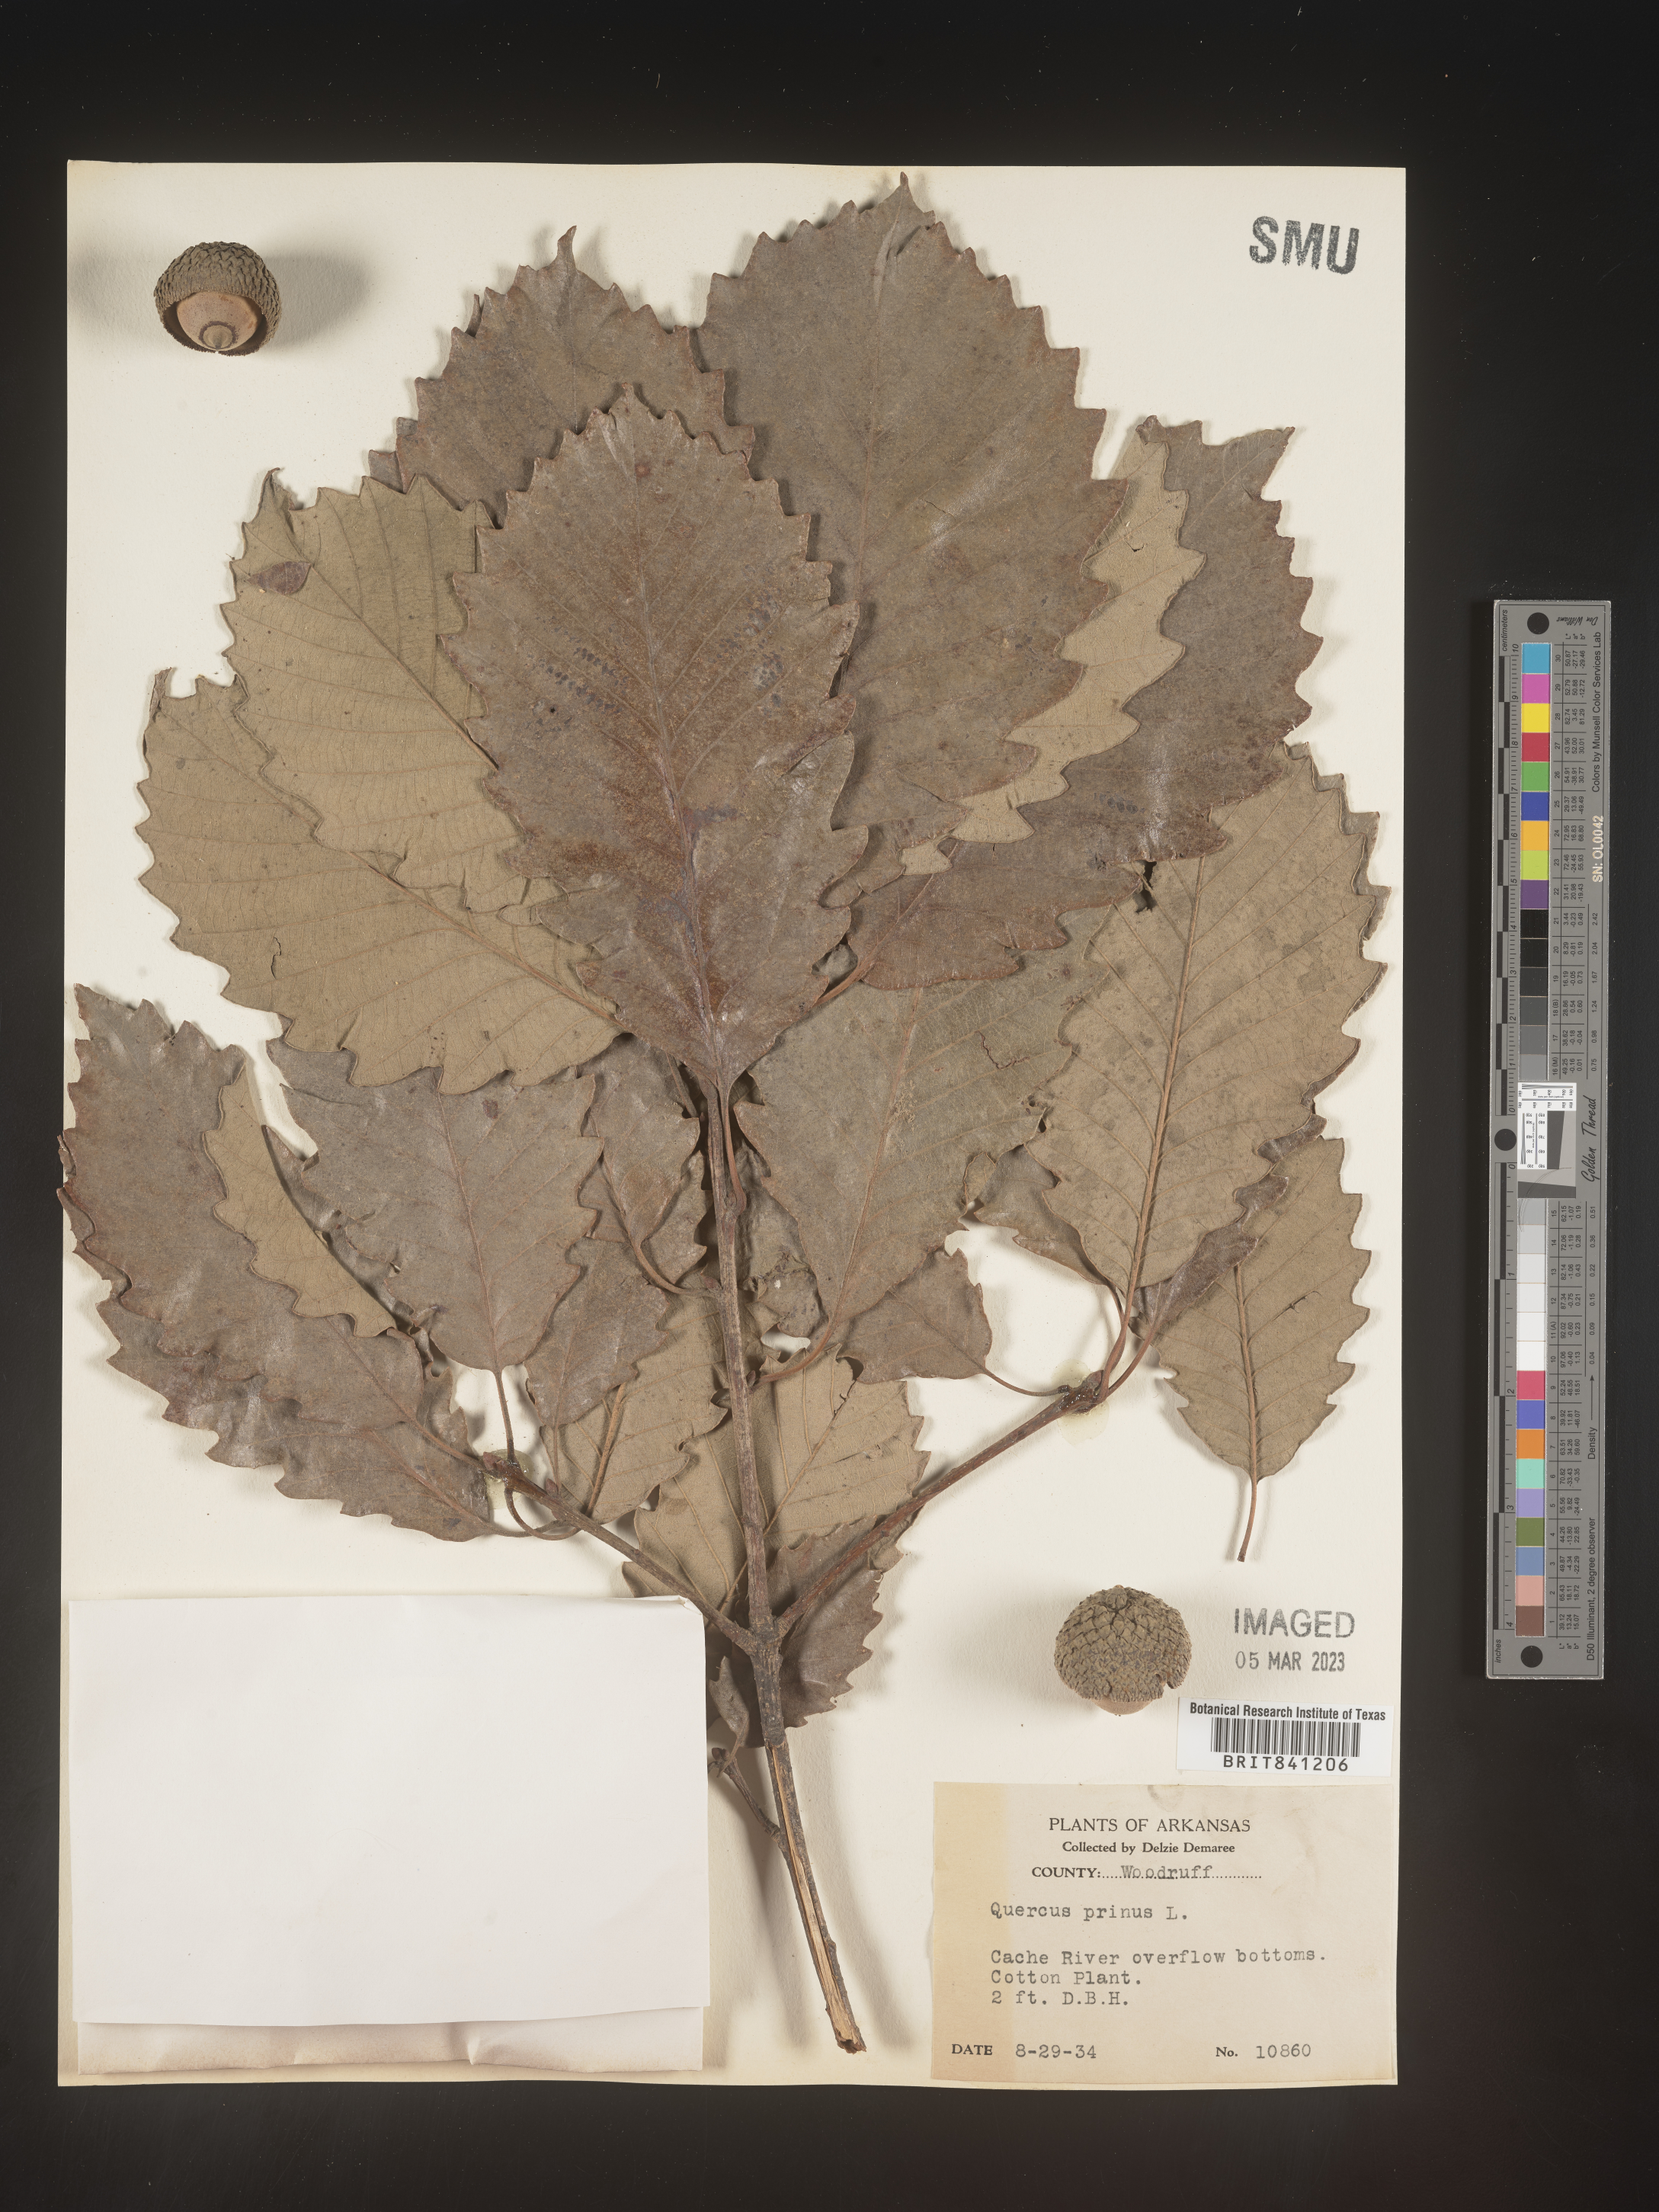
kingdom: Plantae
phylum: Tracheophyta
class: Magnoliopsida
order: Fagales
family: Fagaceae
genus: Quercus
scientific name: Quercus michauxii
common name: Swamp chestnut oak
